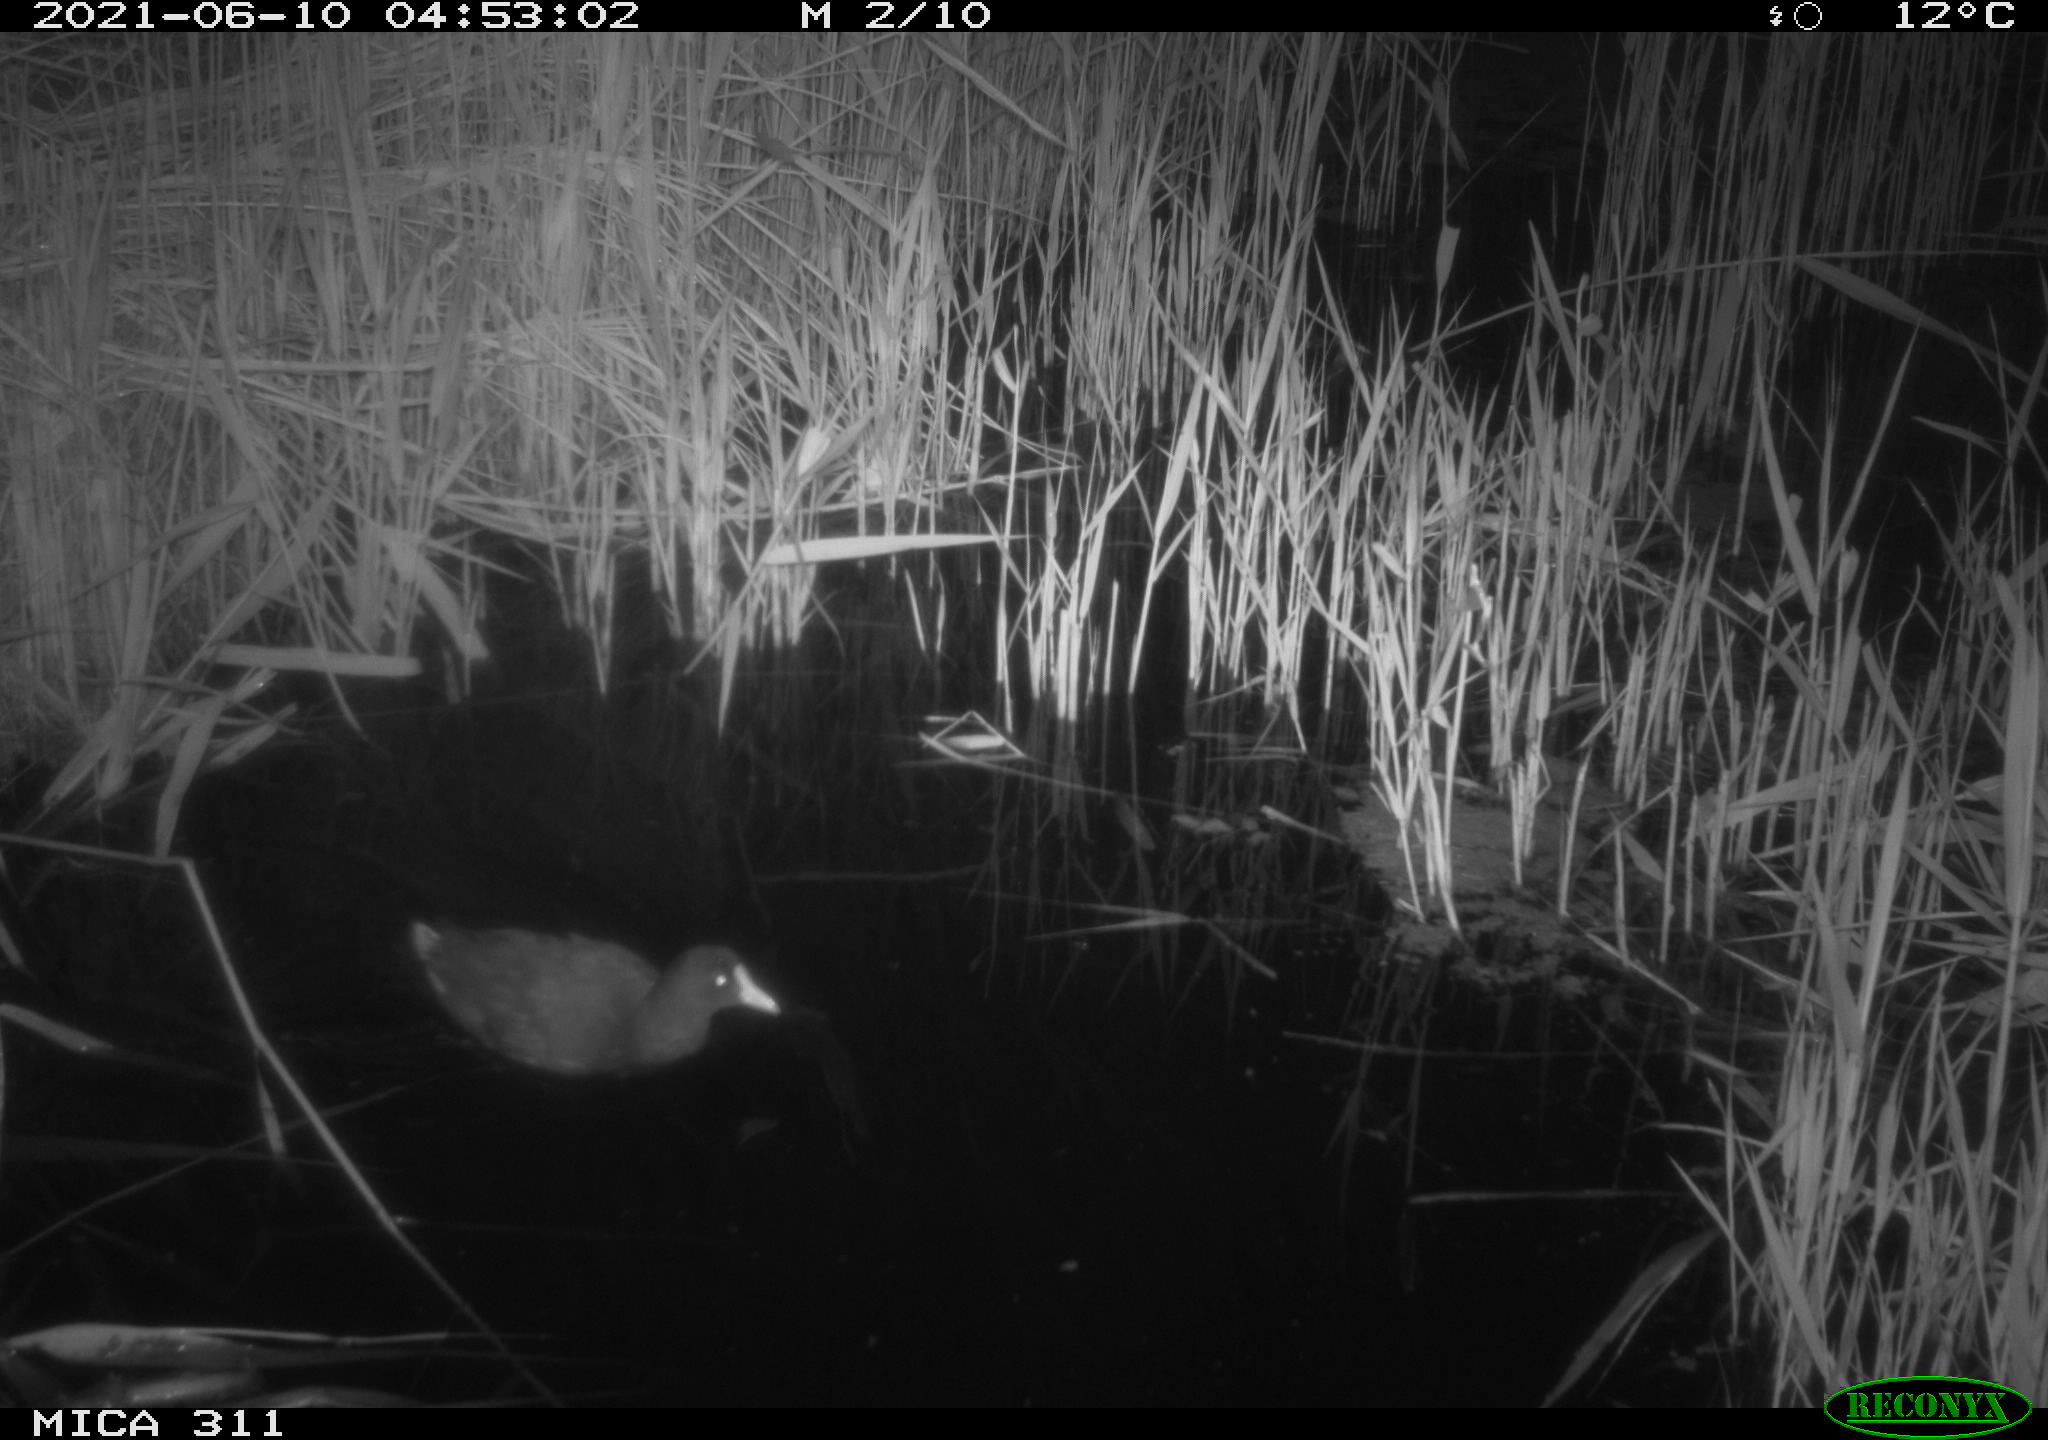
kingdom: Animalia
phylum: Chordata
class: Aves
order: Gruiformes
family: Rallidae
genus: Gallinula
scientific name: Gallinula chloropus
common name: Common moorhen
